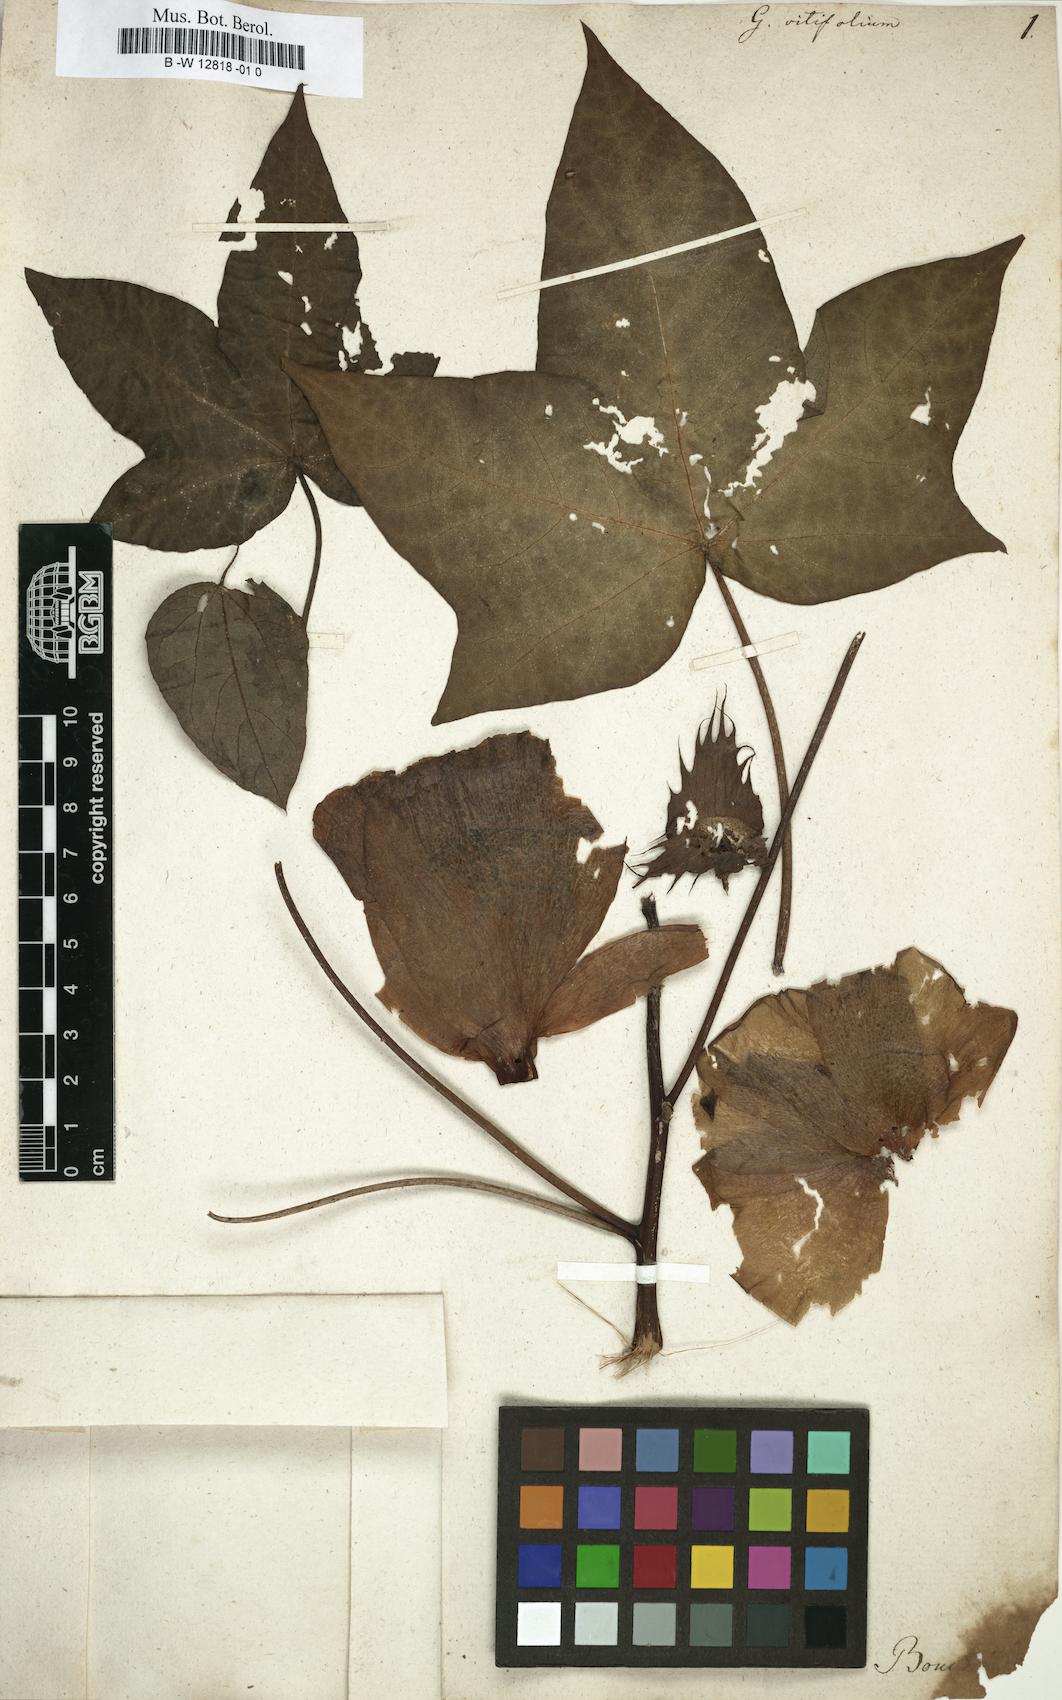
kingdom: Plantae
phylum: Tracheophyta
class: Magnoliopsida
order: Malvales
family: Malvaceae
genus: Gossypium
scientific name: Gossypium barbadense
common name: Creole cotton
